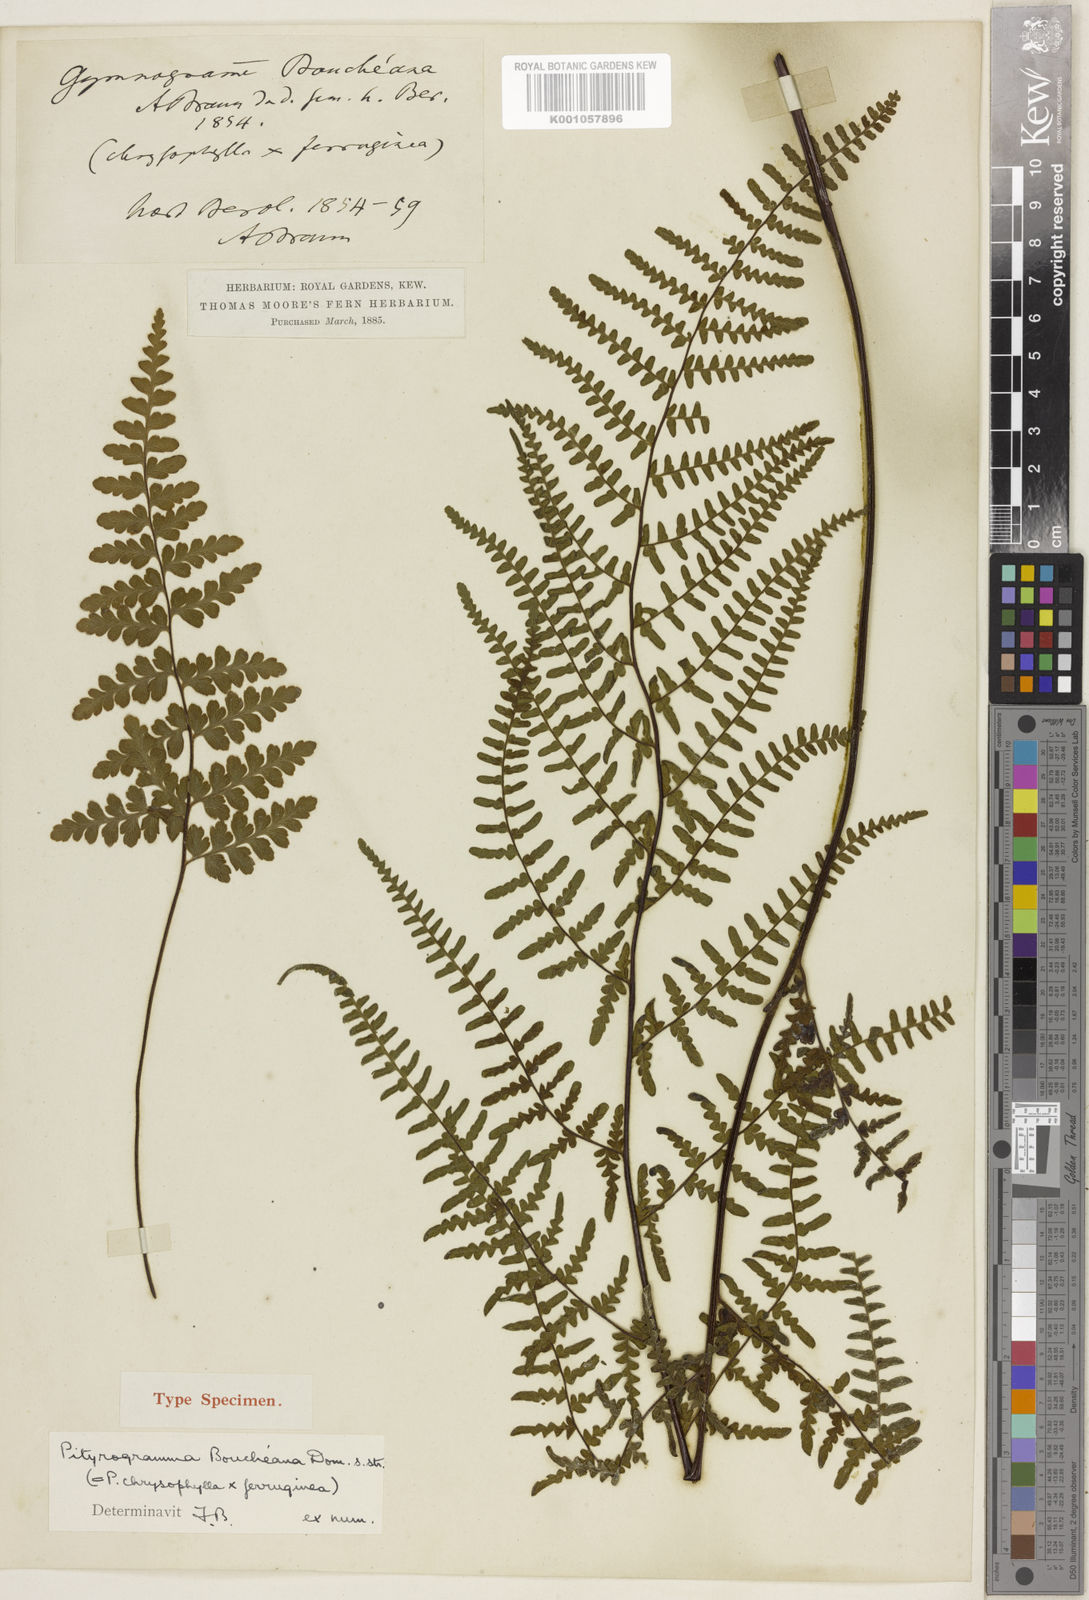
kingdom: Plantae
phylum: Tracheophyta
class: Polypodiopsida
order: Polypodiales
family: Pteridaceae
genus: Pityrogramma
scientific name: Pityrogramma
